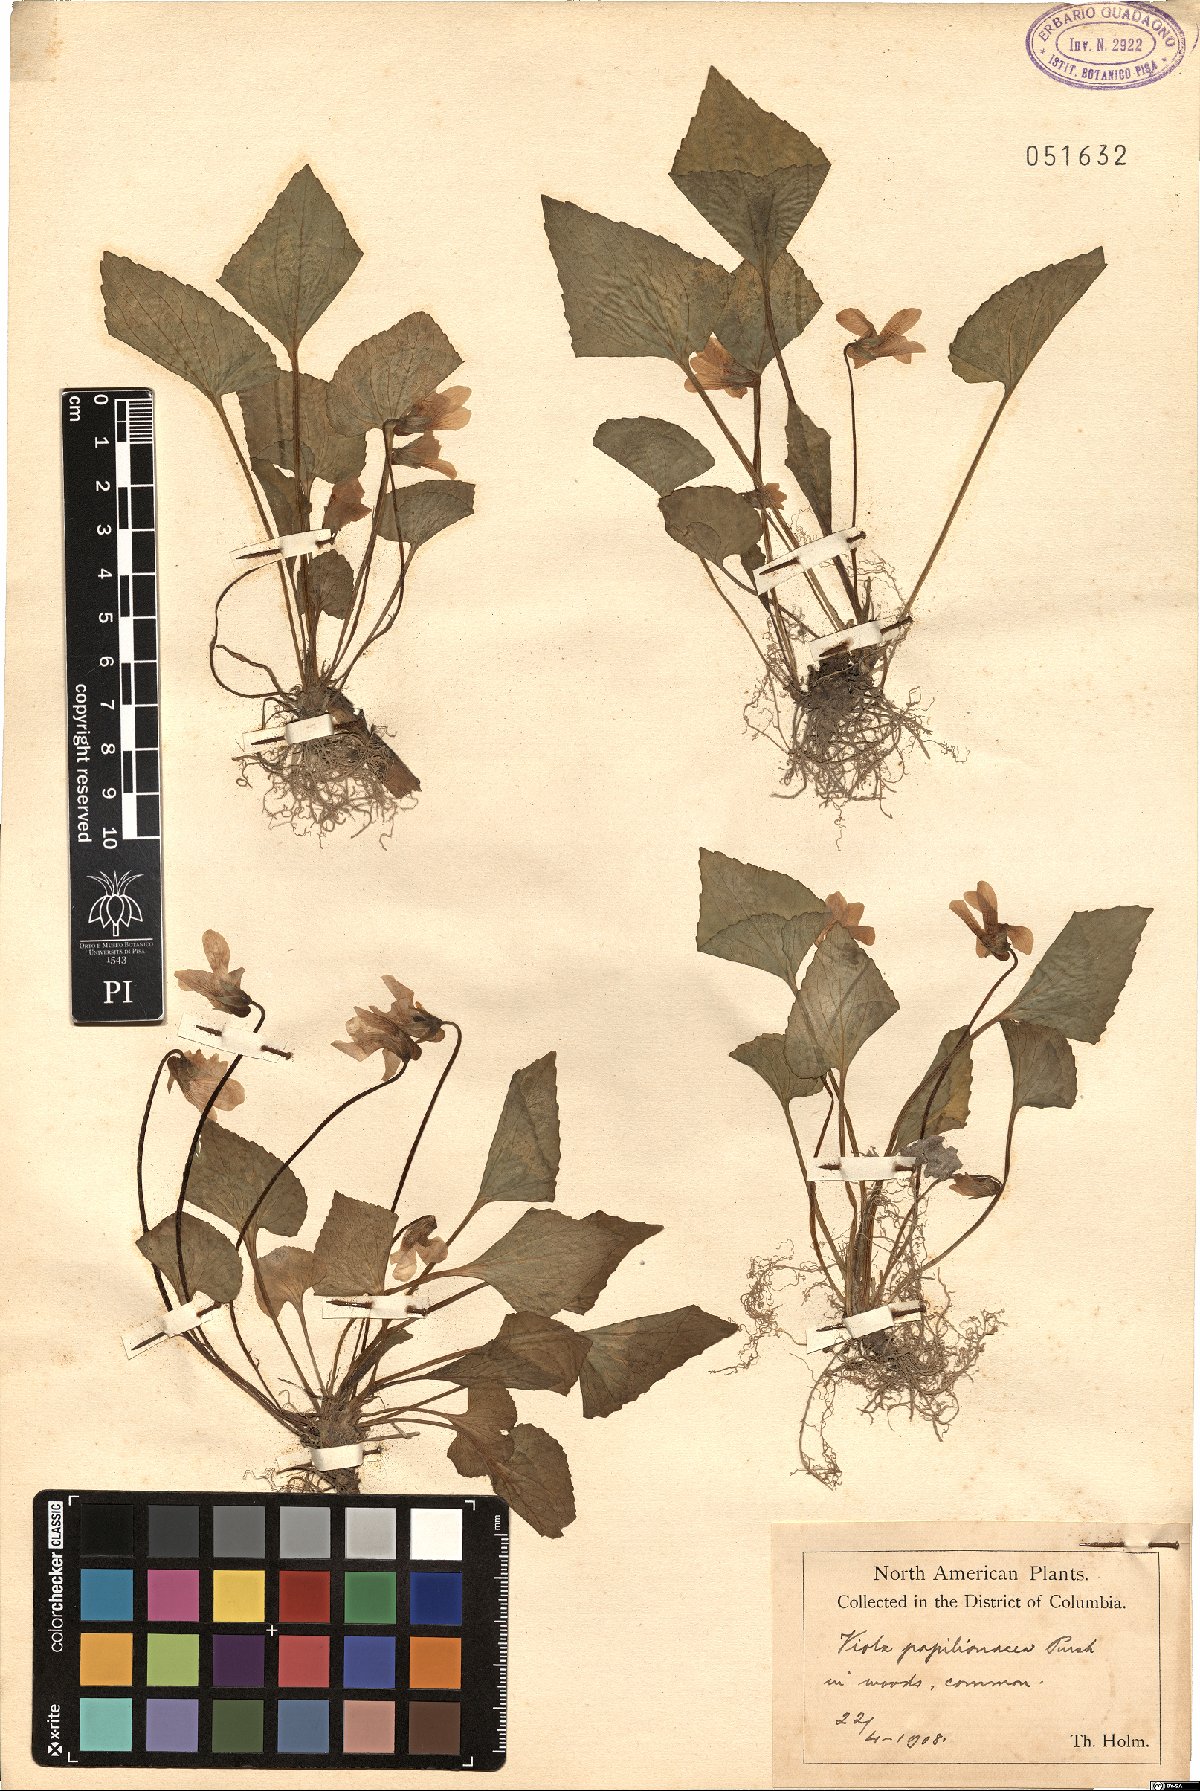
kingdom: Plantae
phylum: Tracheophyta
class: Magnoliopsida
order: Malpighiales
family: Violaceae
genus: Viola
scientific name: Viola sororia
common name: Dooryard violet
